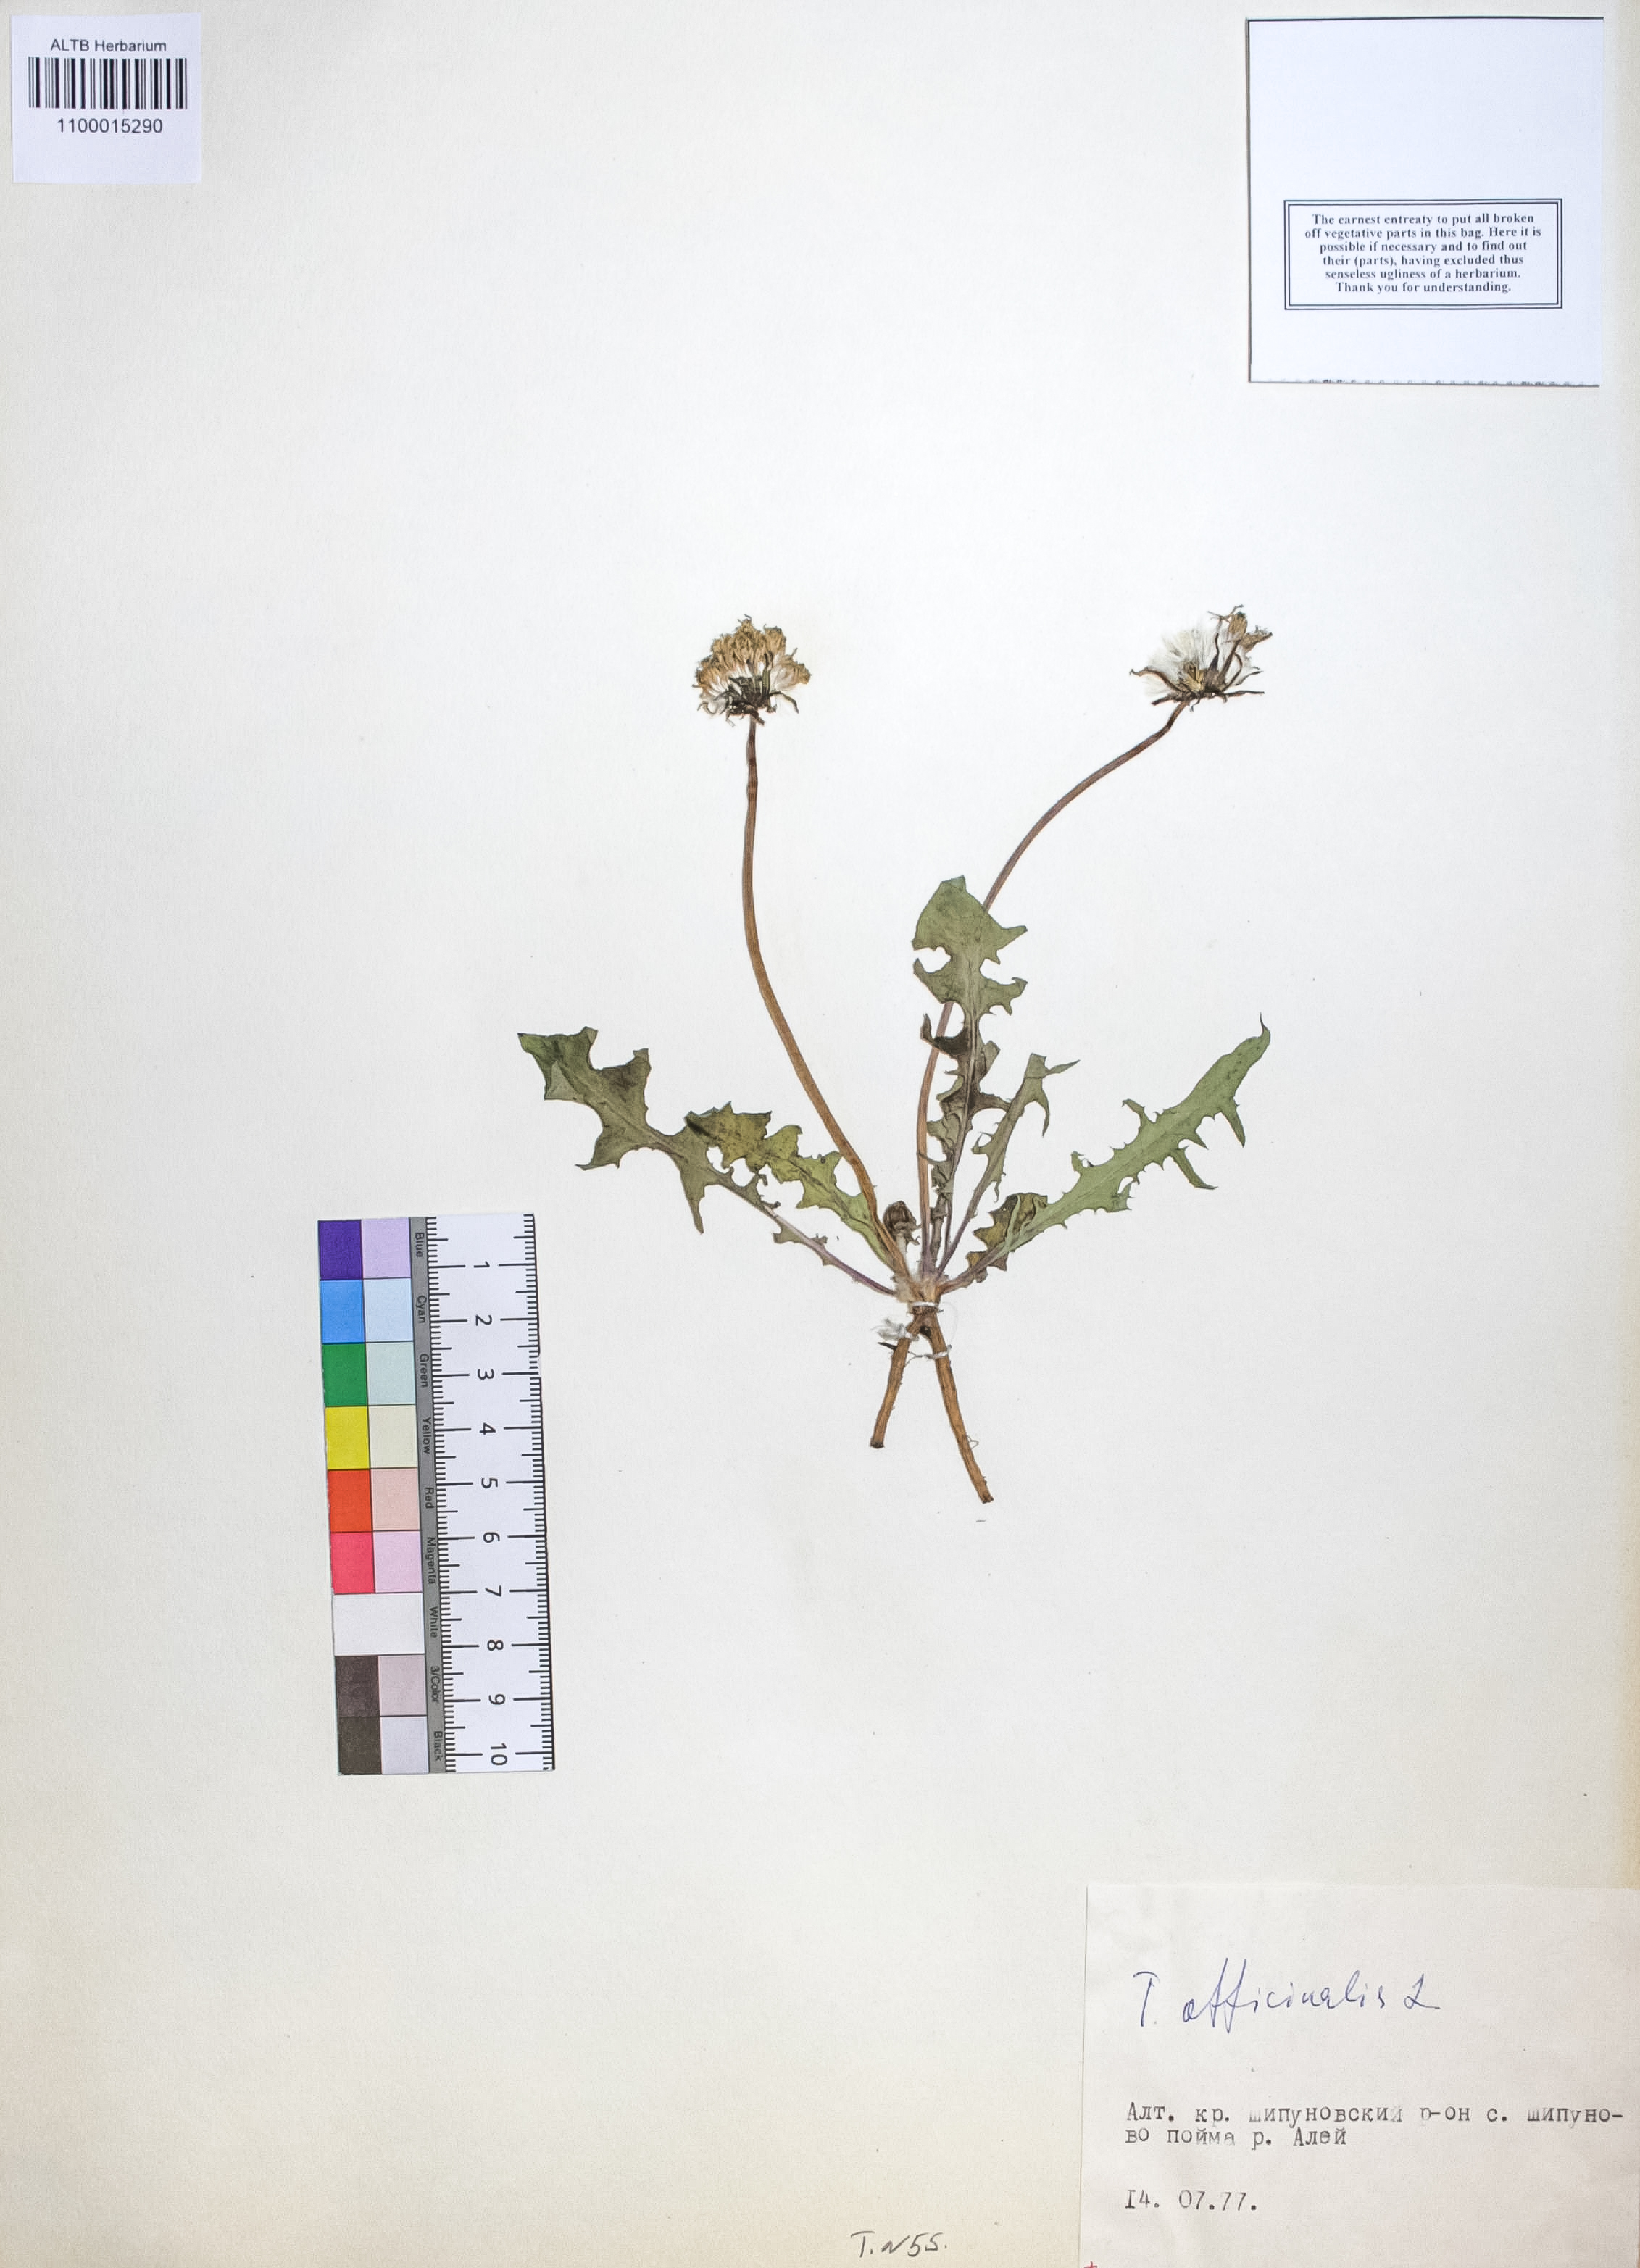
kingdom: Plantae
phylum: Tracheophyta
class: Magnoliopsida
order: Asterales
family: Asteraceae
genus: Taraxacum
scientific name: Taraxacum officinale
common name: Common dandelion
